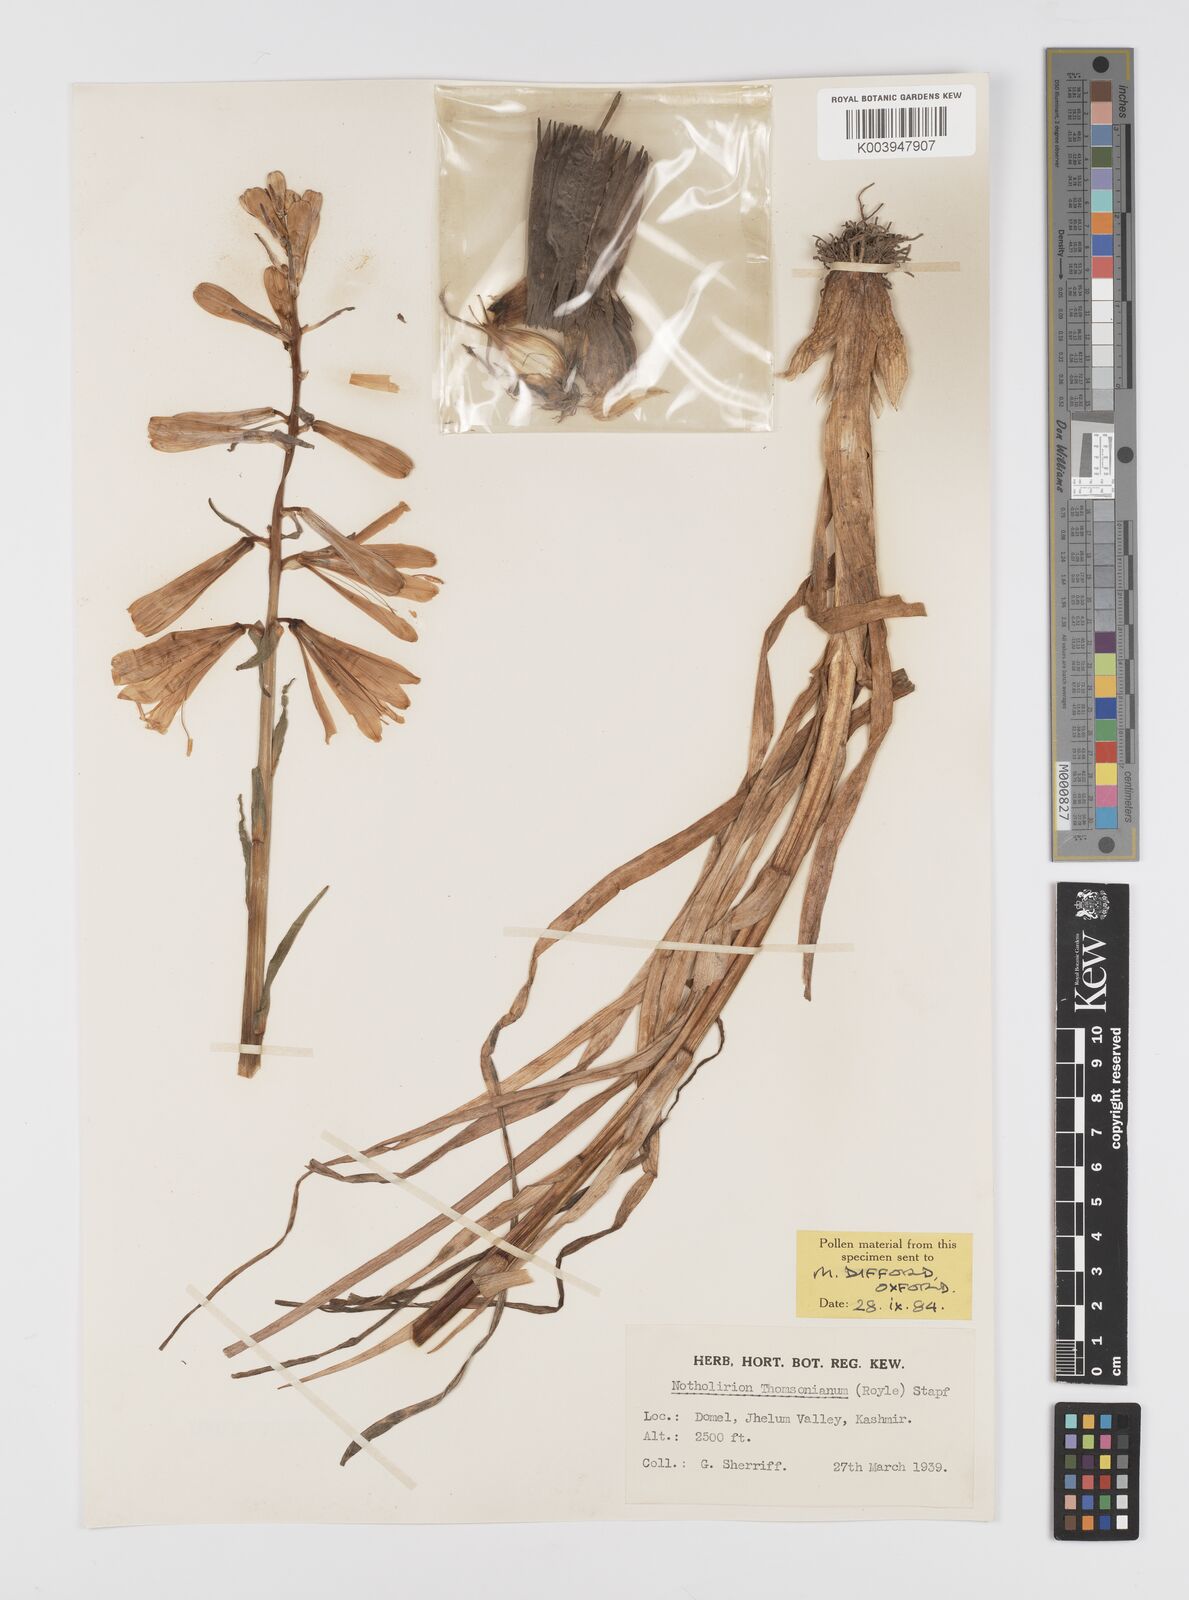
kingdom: Plantae
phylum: Tracheophyta
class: Liliopsida
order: Liliales
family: Liliaceae
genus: Notholirion
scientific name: Notholirion
